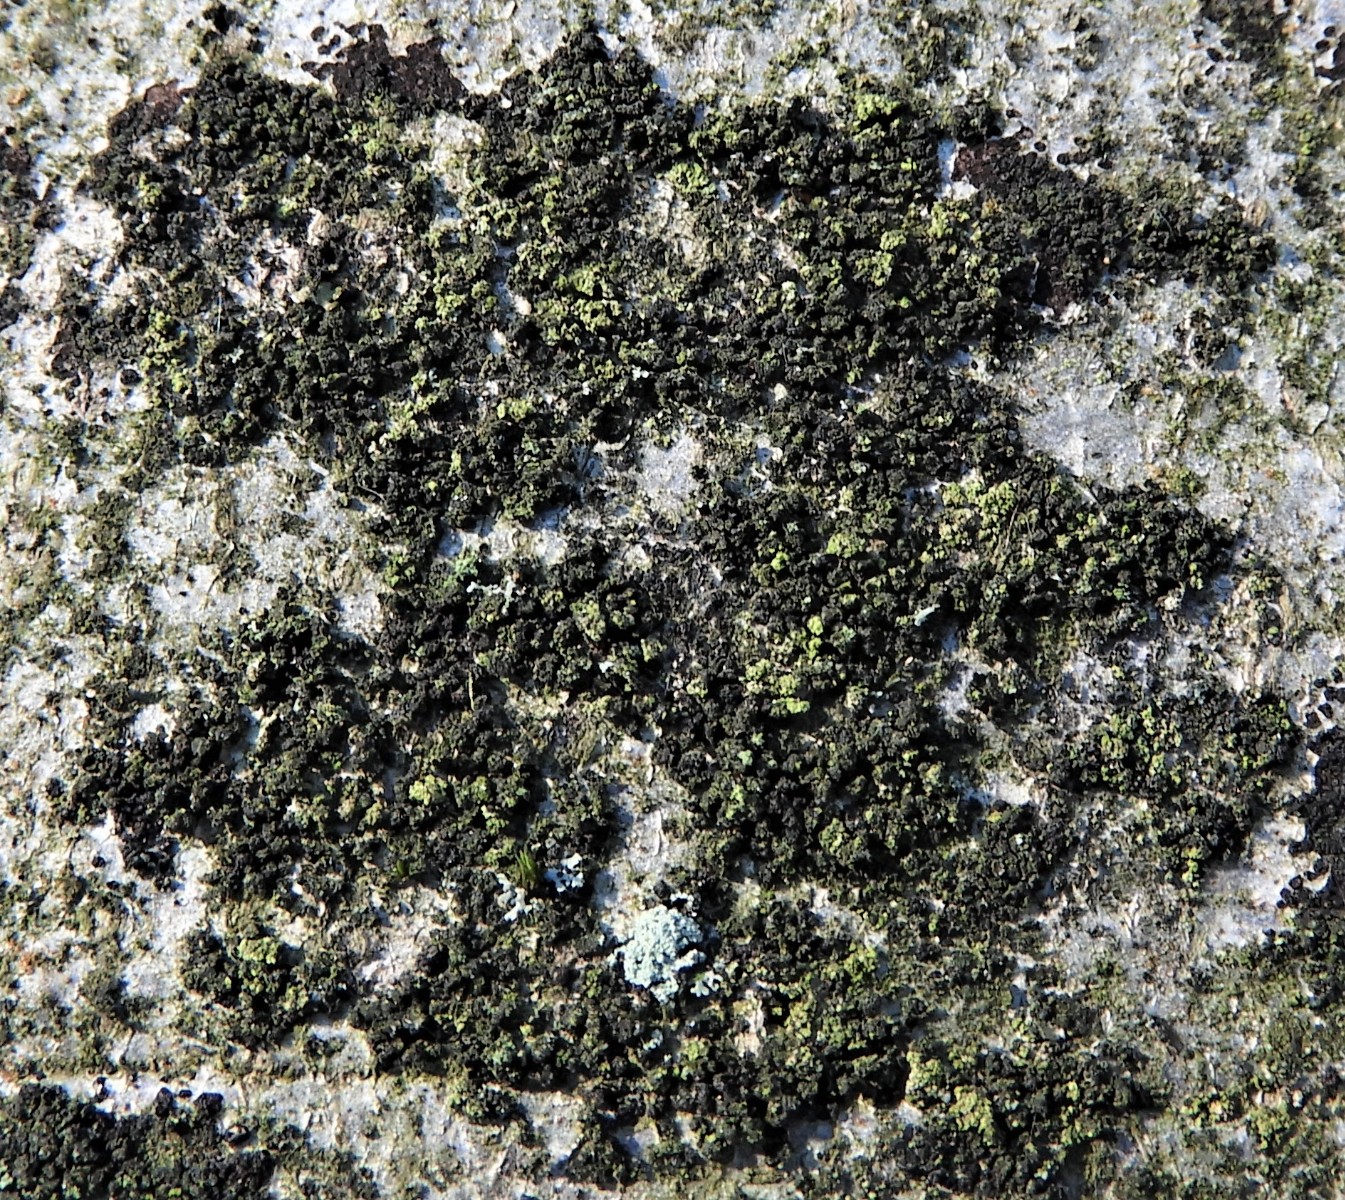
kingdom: Fungi
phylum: Ascomycota
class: Lecanoromycetes
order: Lecanorales
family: Parmeliaceae
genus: Lichen
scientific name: Lichen
